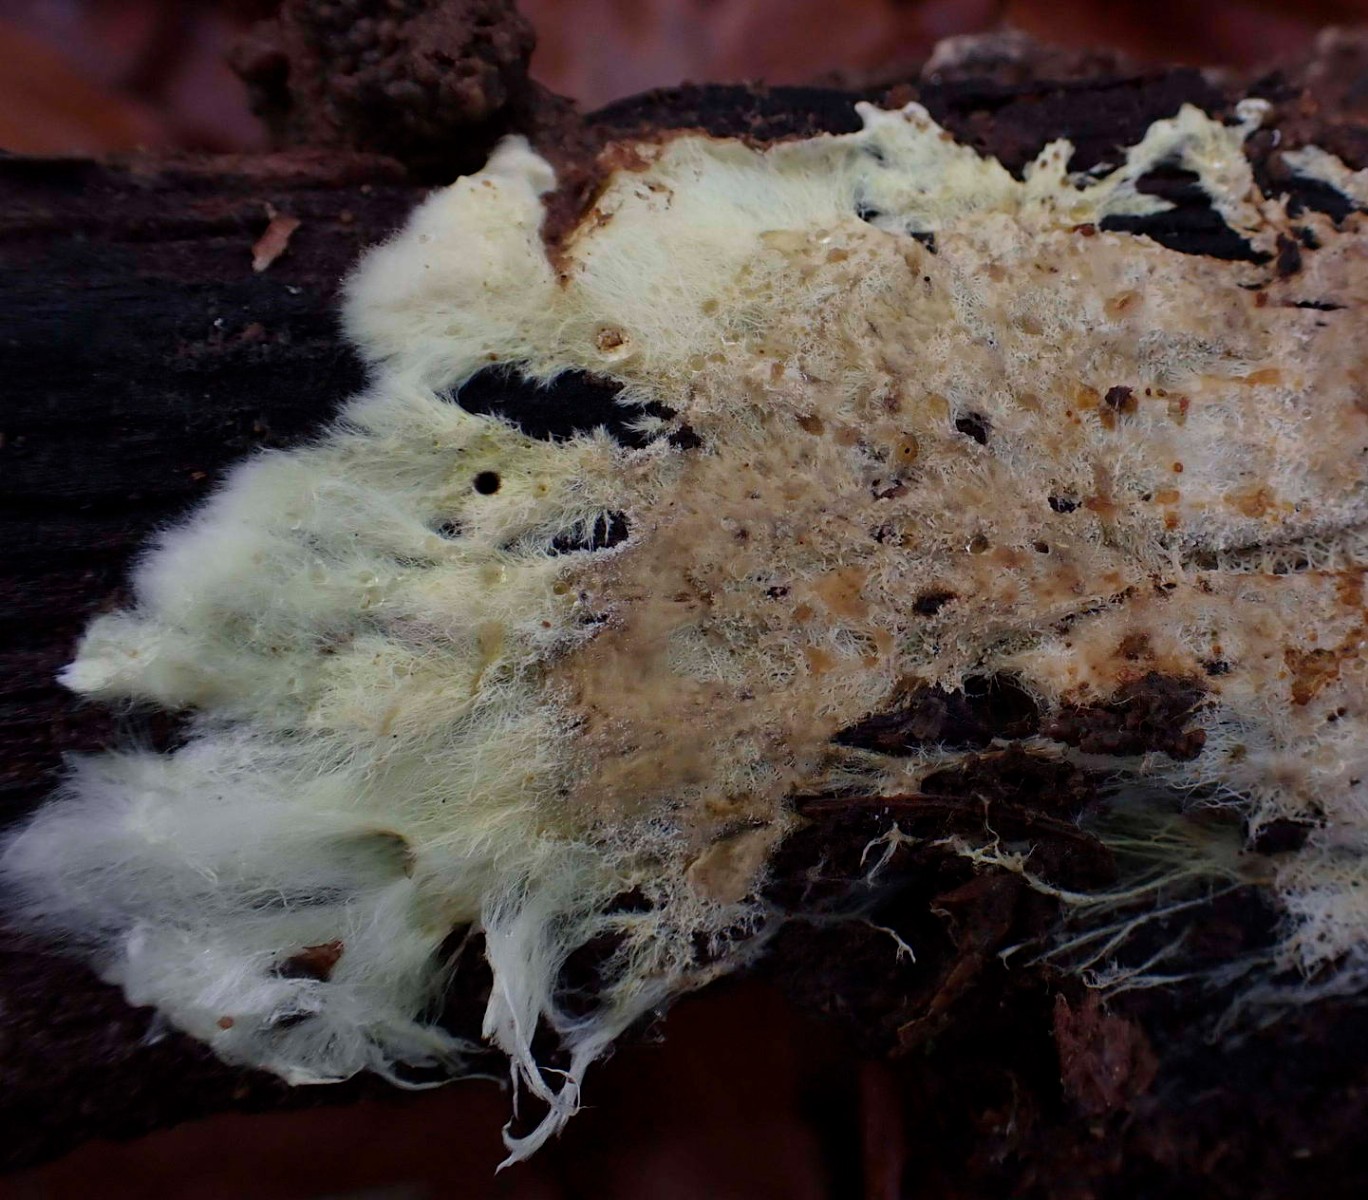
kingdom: Fungi
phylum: Basidiomycota
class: Agaricomycetes
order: Russulales
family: Xenasmataceae
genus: Xenasmatella
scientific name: Xenasmatella vaga
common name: svovl-strenghinde
